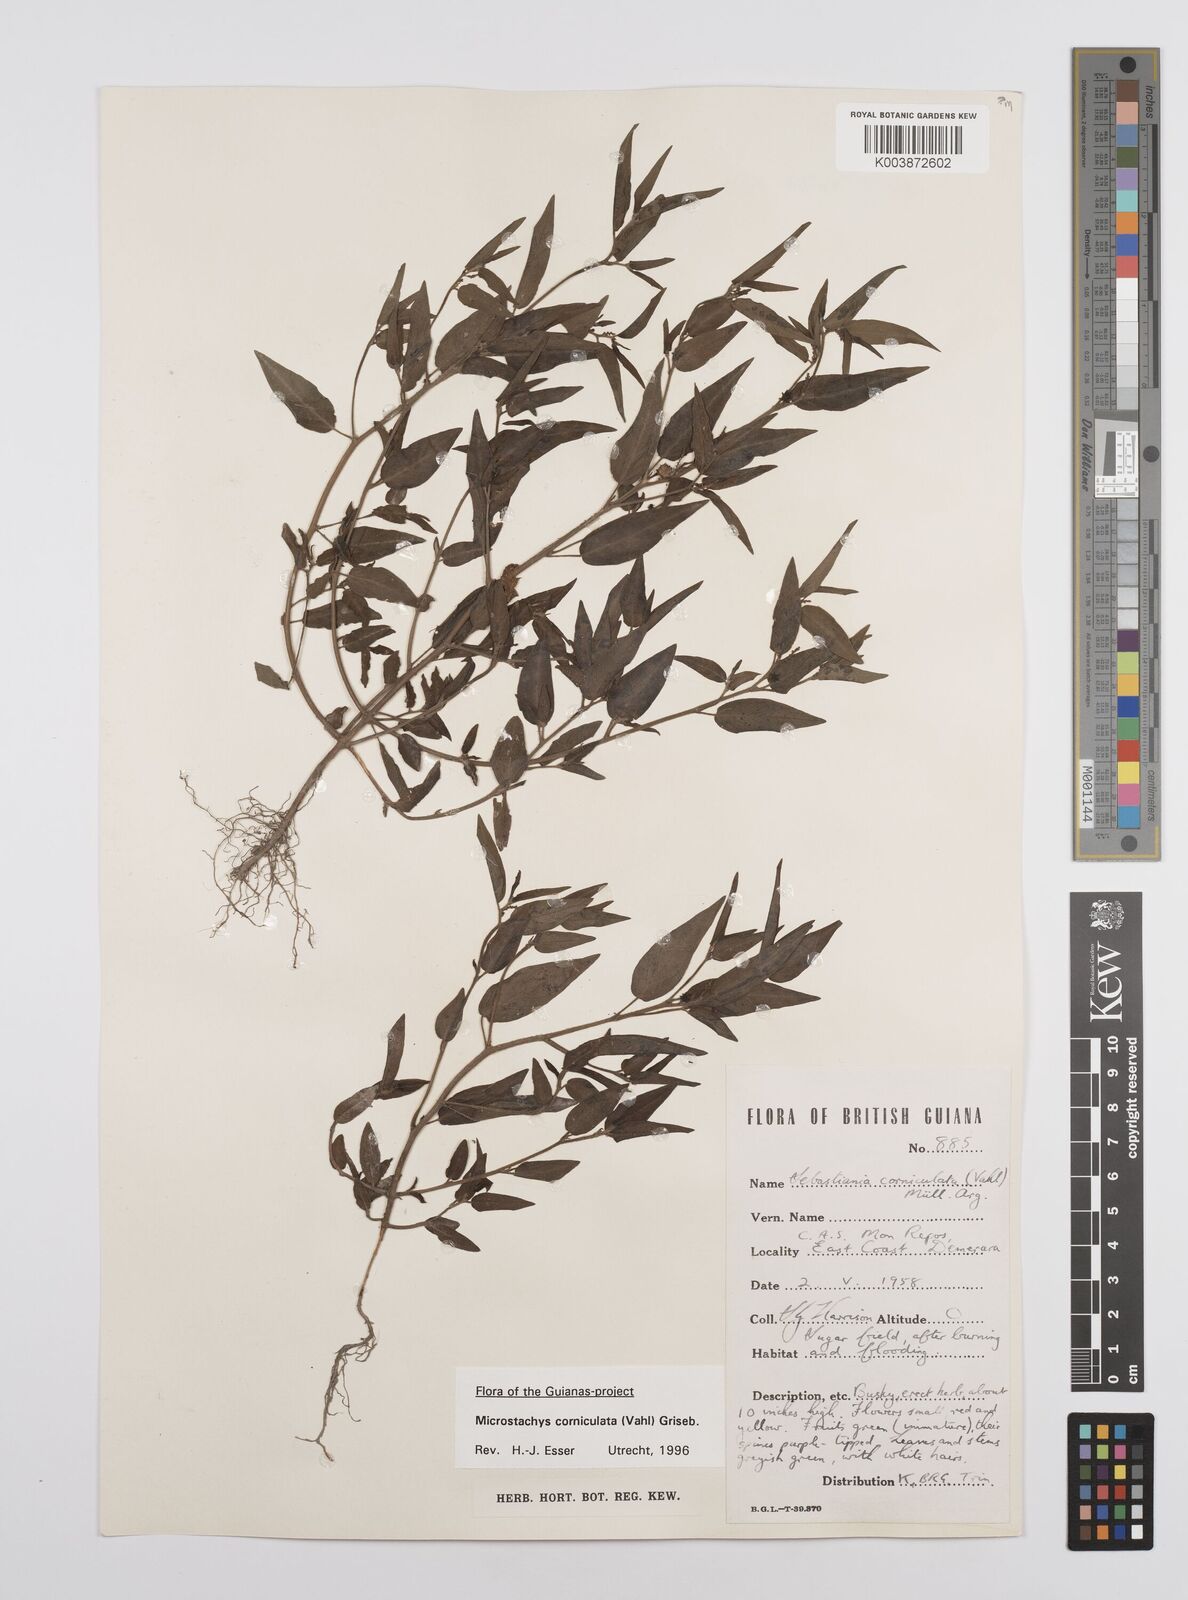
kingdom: Plantae
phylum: Tracheophyta
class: Magnoliopsida
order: Malpighiales
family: Euphorbiaceae
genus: Microstachys
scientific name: Microstachys corniculata
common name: Hato tejas
